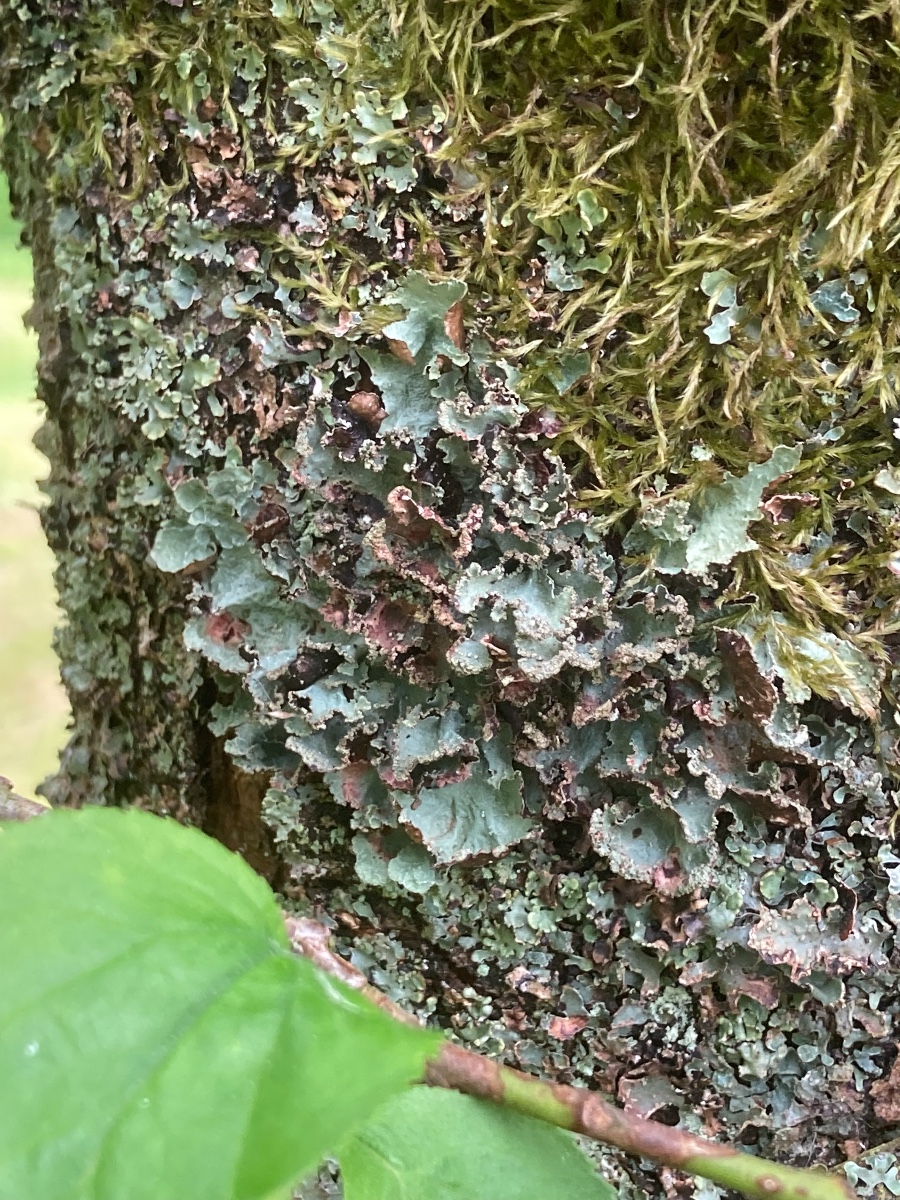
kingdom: Fungi
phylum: Ascomycota
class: Lecanoromycetes
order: Lecanorales
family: Parmeliaceae
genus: Platismatia
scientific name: Platismatia glauca
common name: blågrå papirlav
